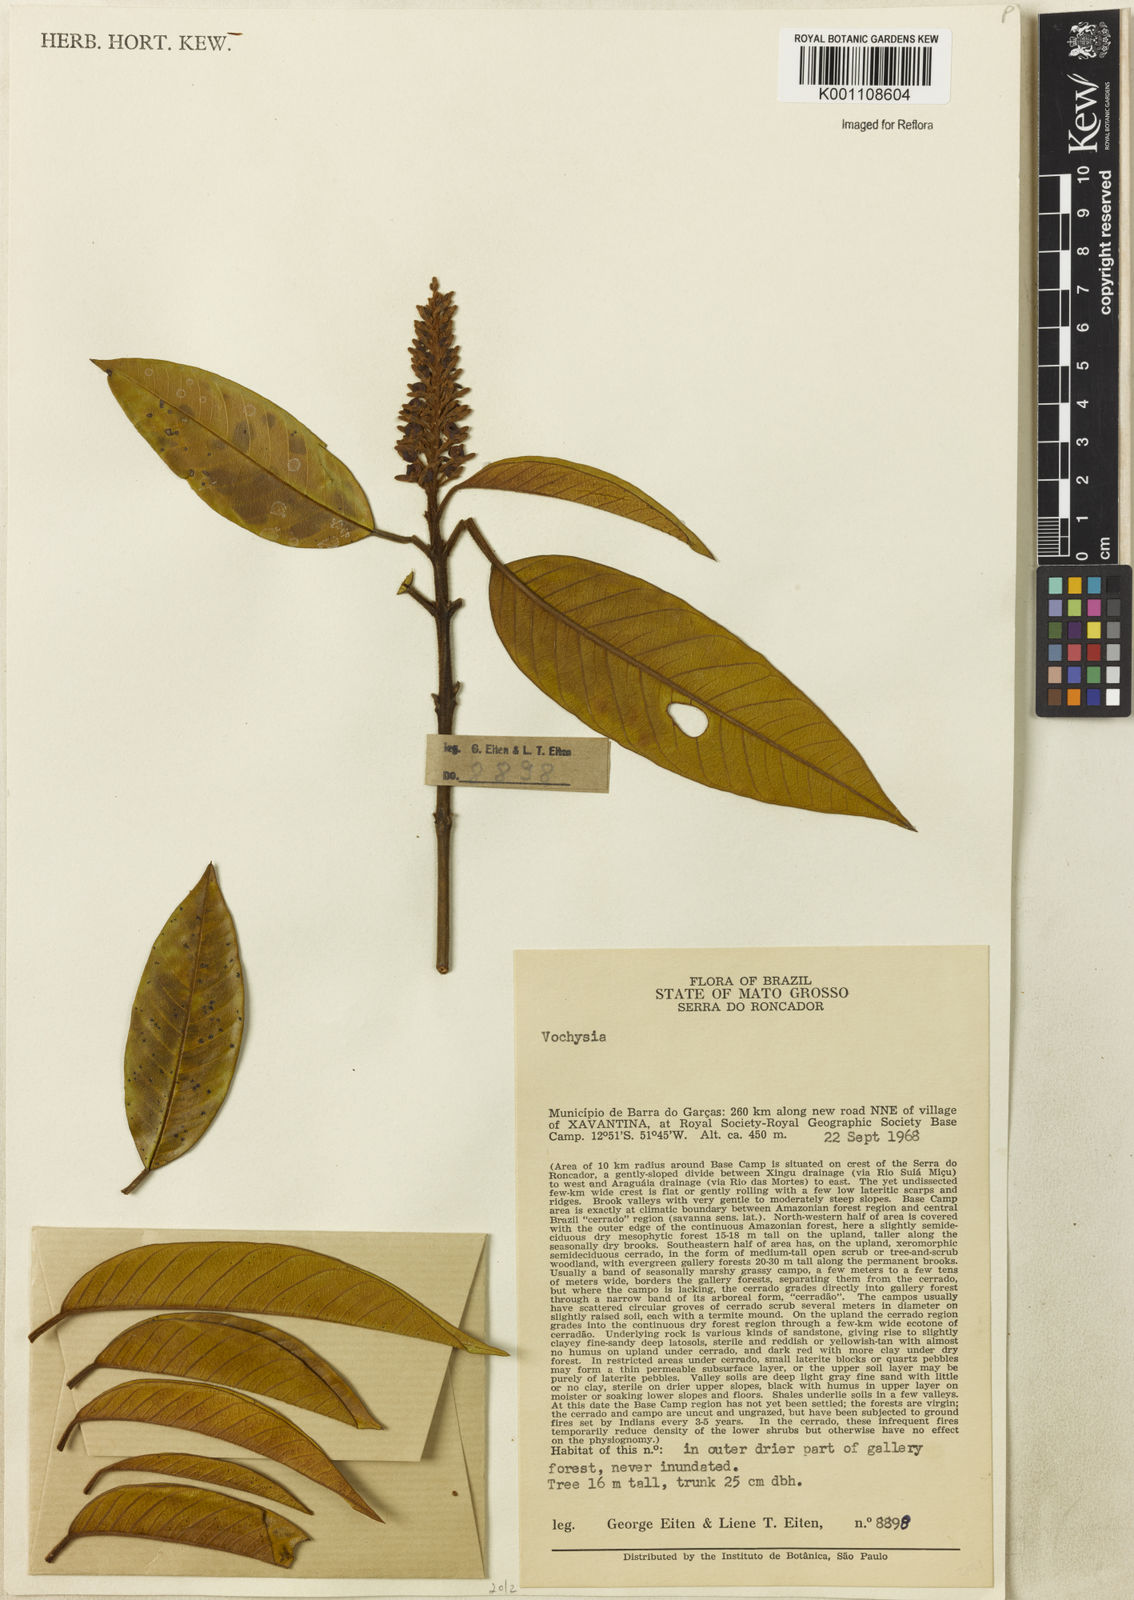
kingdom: Plantae
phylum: Tracheophyta
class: Magnoliopsida
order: Myrtales
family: Vochysiaceae
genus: Vochysia
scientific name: Vochysia
